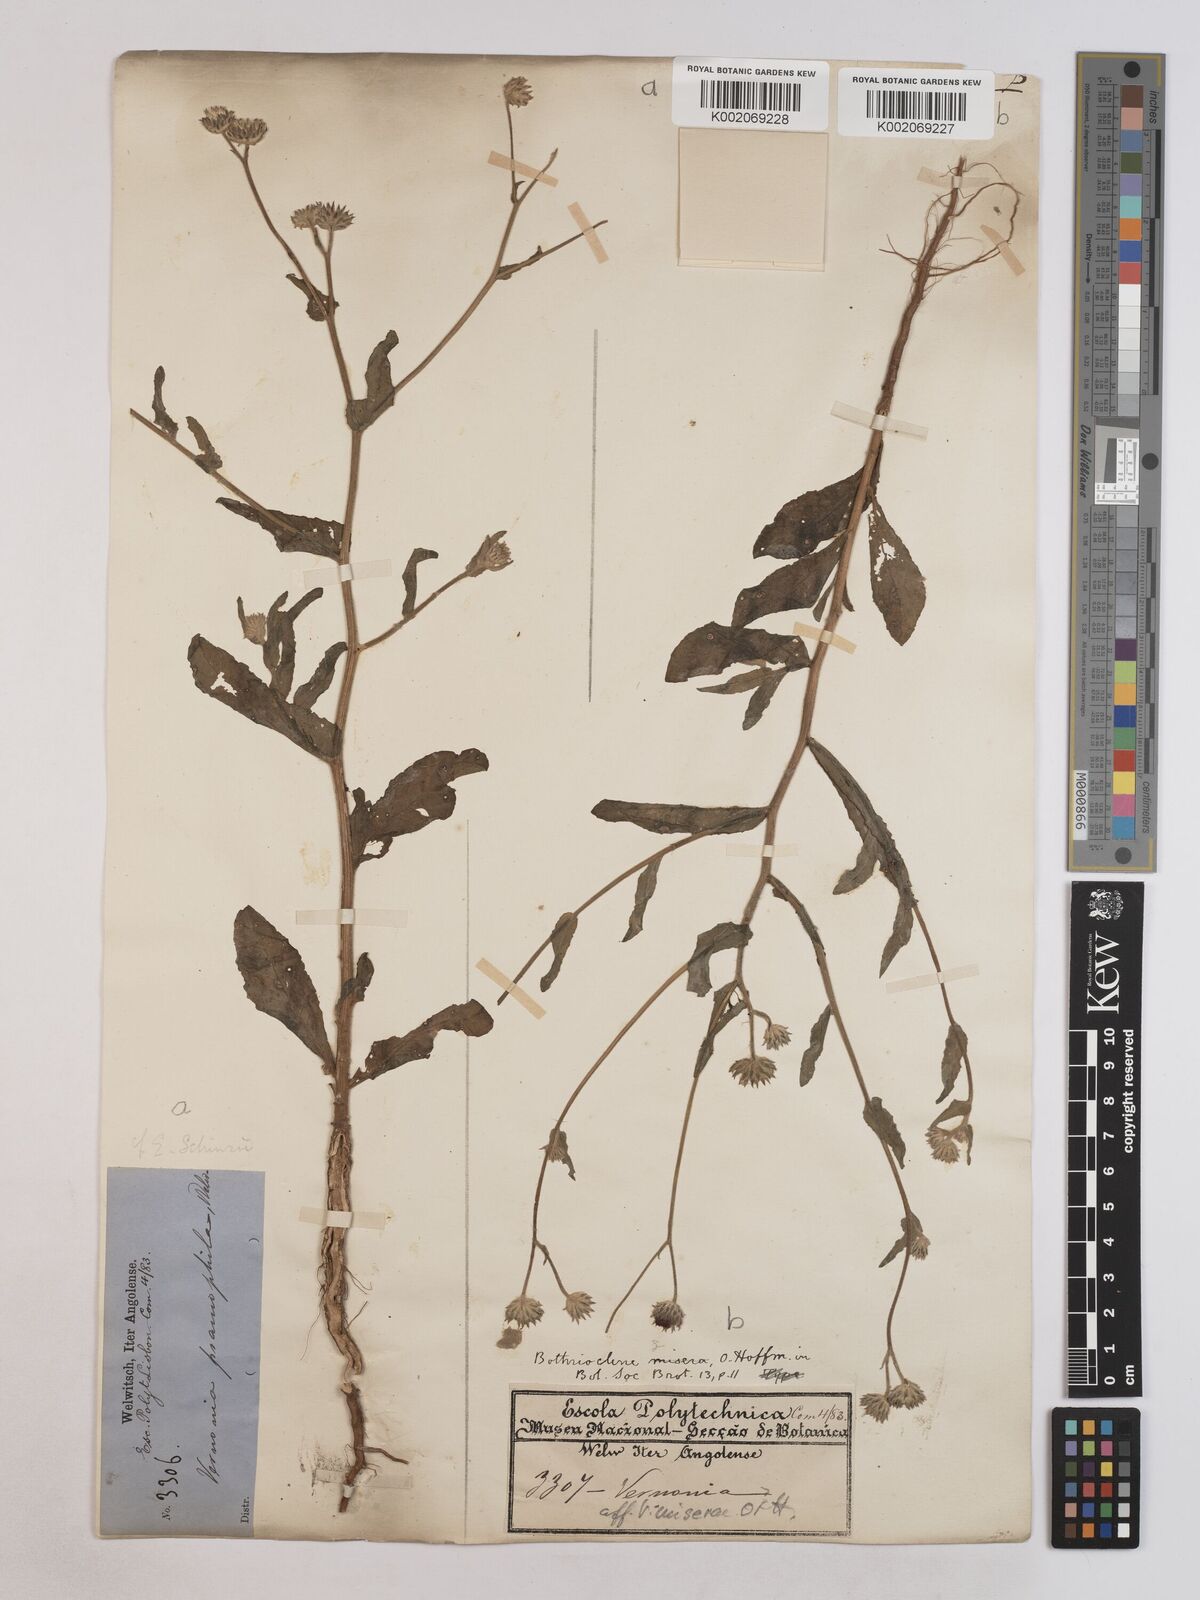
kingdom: Plantae
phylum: Tracheophyta
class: Magnoliopsida
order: Asterales
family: Asteraceae
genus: Erlangea
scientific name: Erlangea misera
